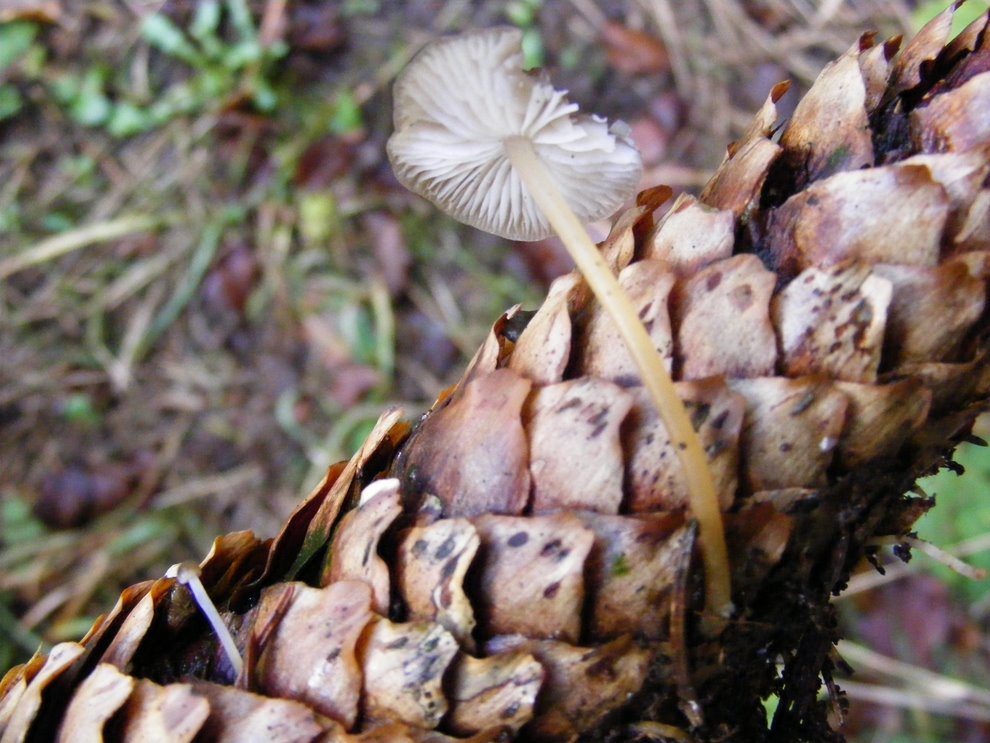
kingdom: Fungi
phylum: Basidiomycota
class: Agaricomycetes
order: Agaricales
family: Physalacriaceae
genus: Strobilurus
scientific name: Strobilurus esculentus
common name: gran-koglehat
